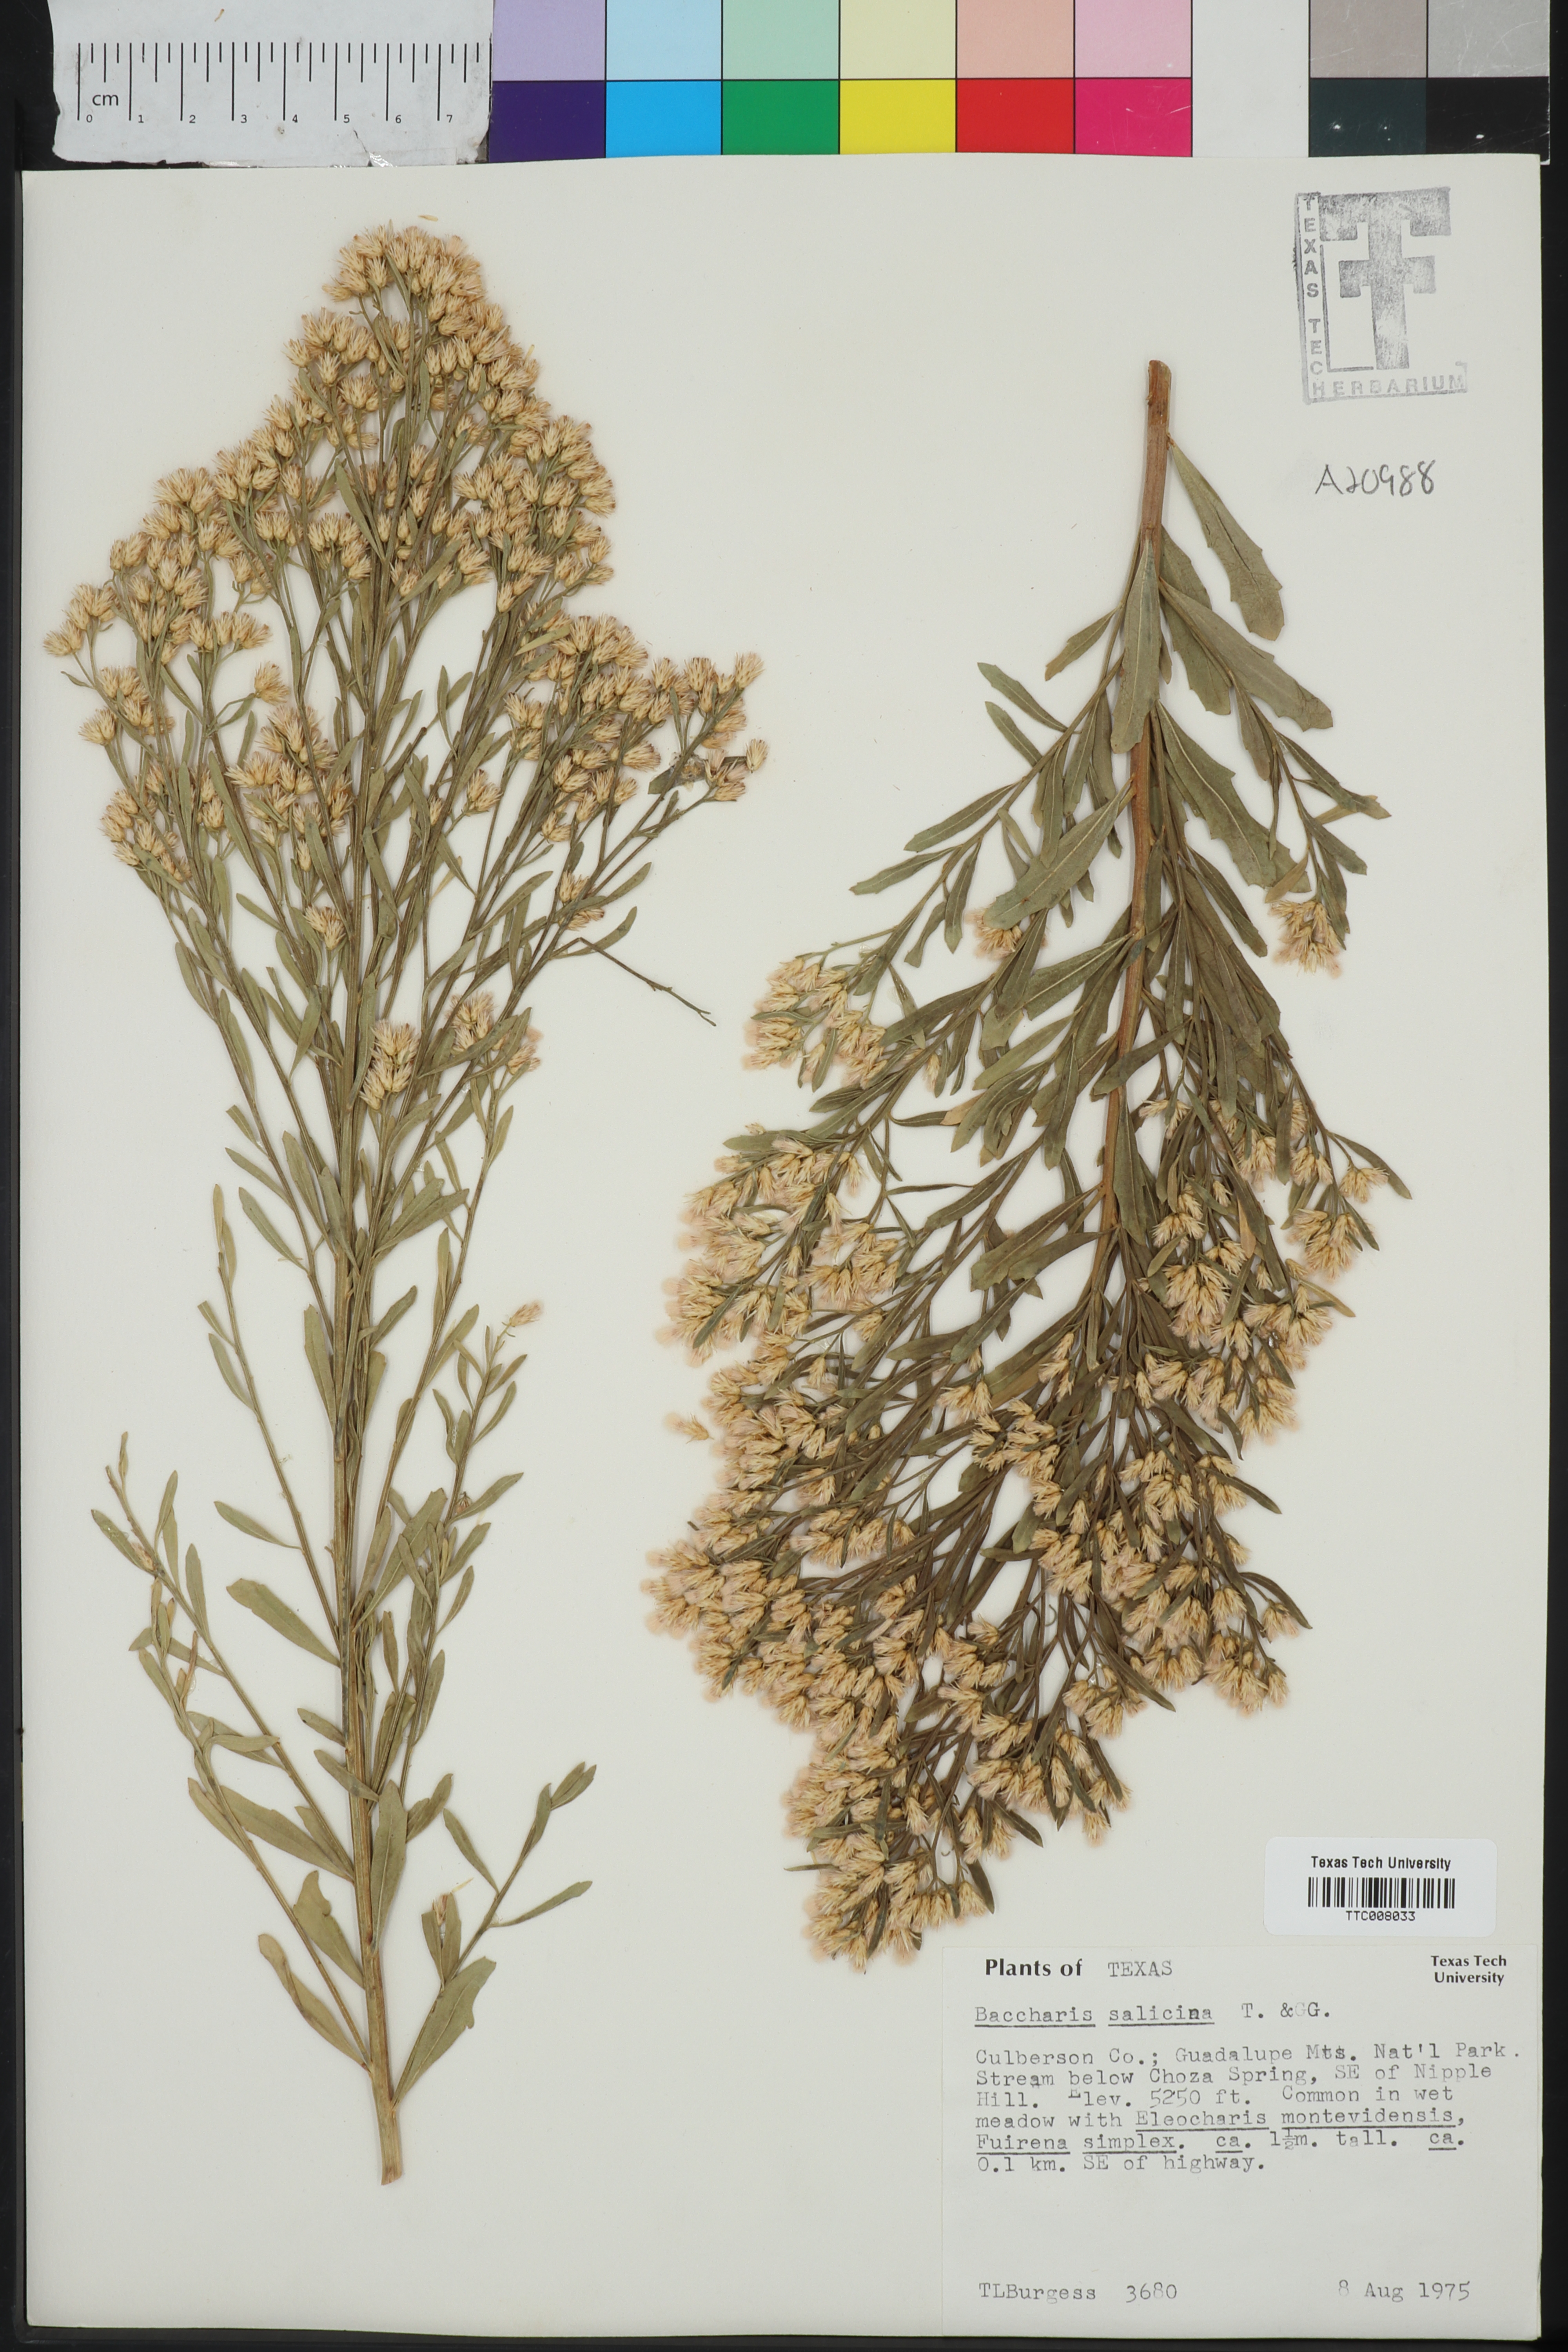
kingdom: Plantae
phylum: Tracheophyta
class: Magnoliopsida
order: Asterales
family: Asteraceae
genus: Baccharis
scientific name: Baccharis salicina
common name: Willow baccharis
